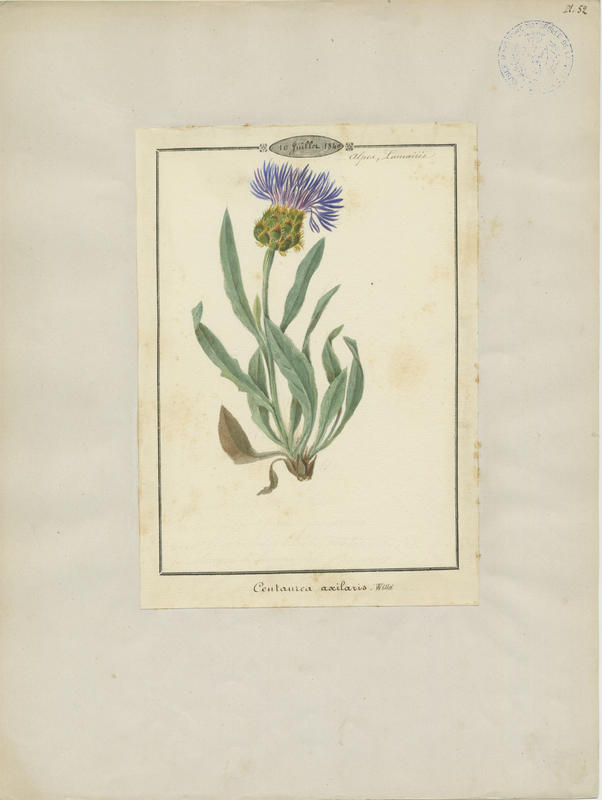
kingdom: Plantae
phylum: Tracheophyta
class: Magnoliopsida
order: Asterales
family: Asteraceae
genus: Centaurea
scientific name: Centaurea triumfettii
